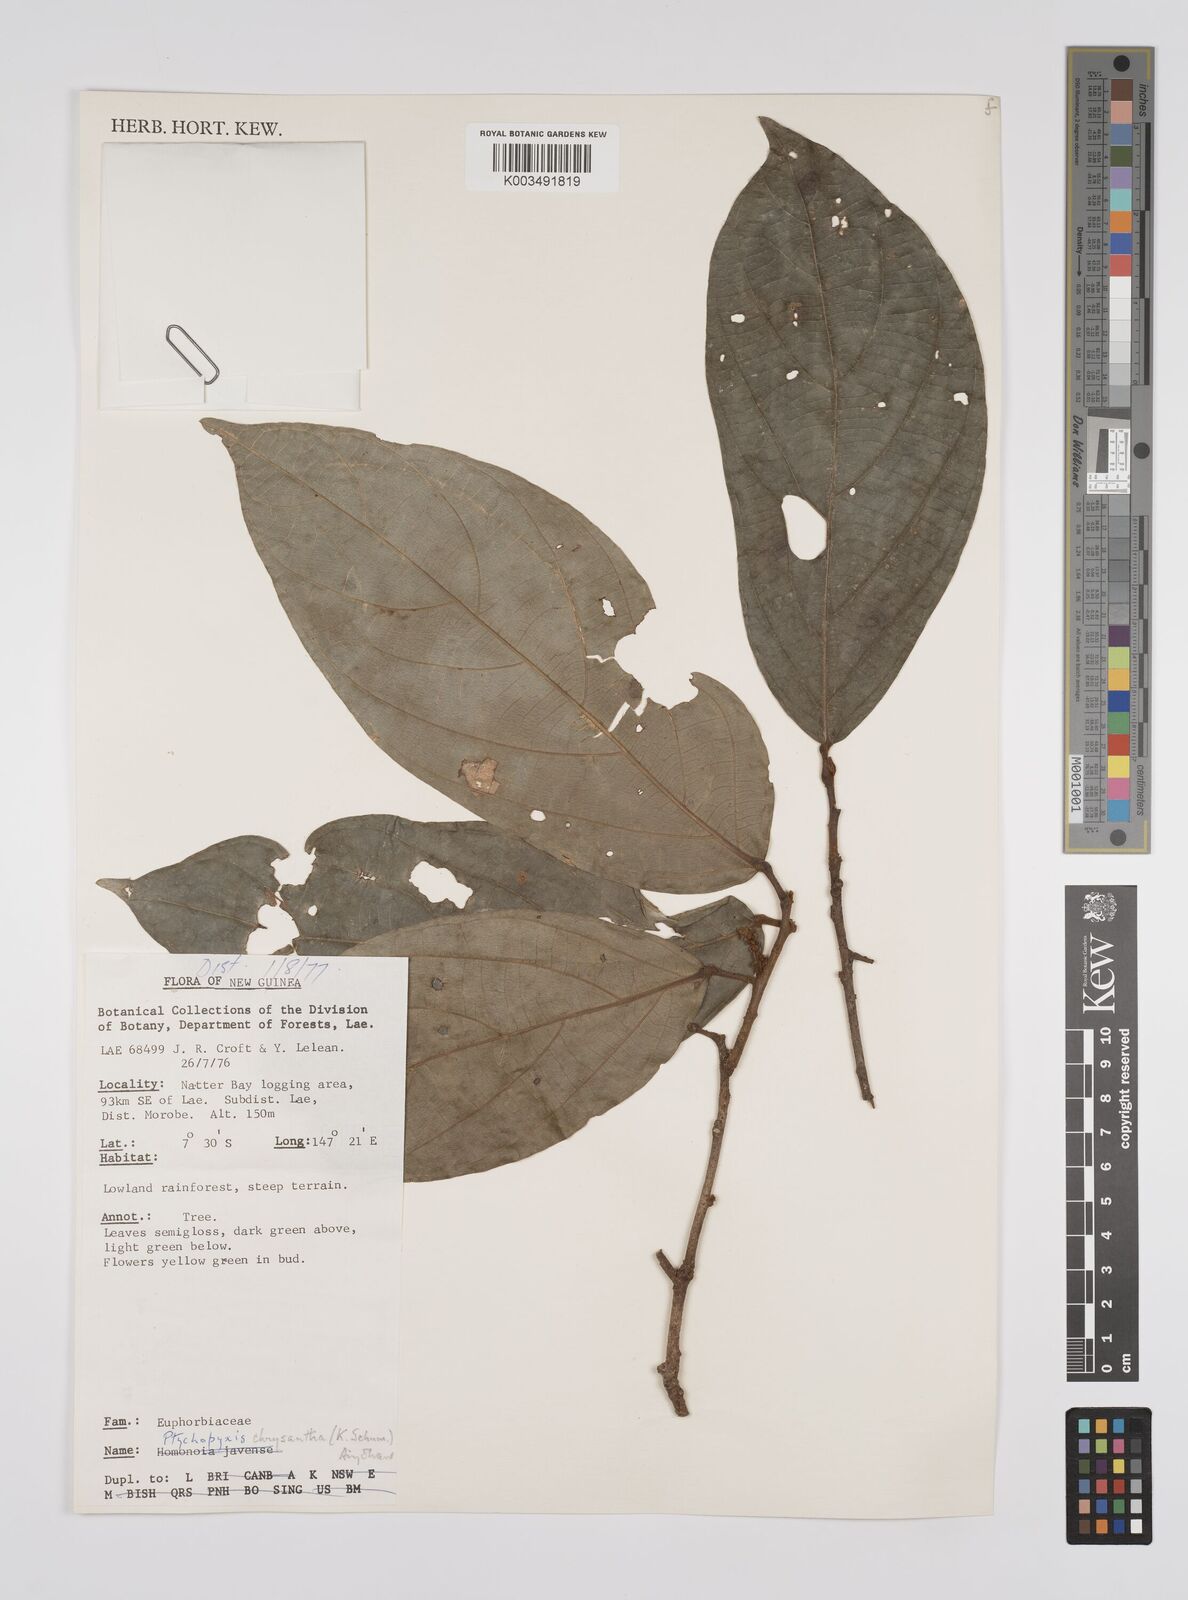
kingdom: Plantae
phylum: Tracheophyta
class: Magnoliopsida
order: Malpighiales
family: Euphorbiaceae
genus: Ptychopyxis
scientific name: Ptychopyxis chrysantha
